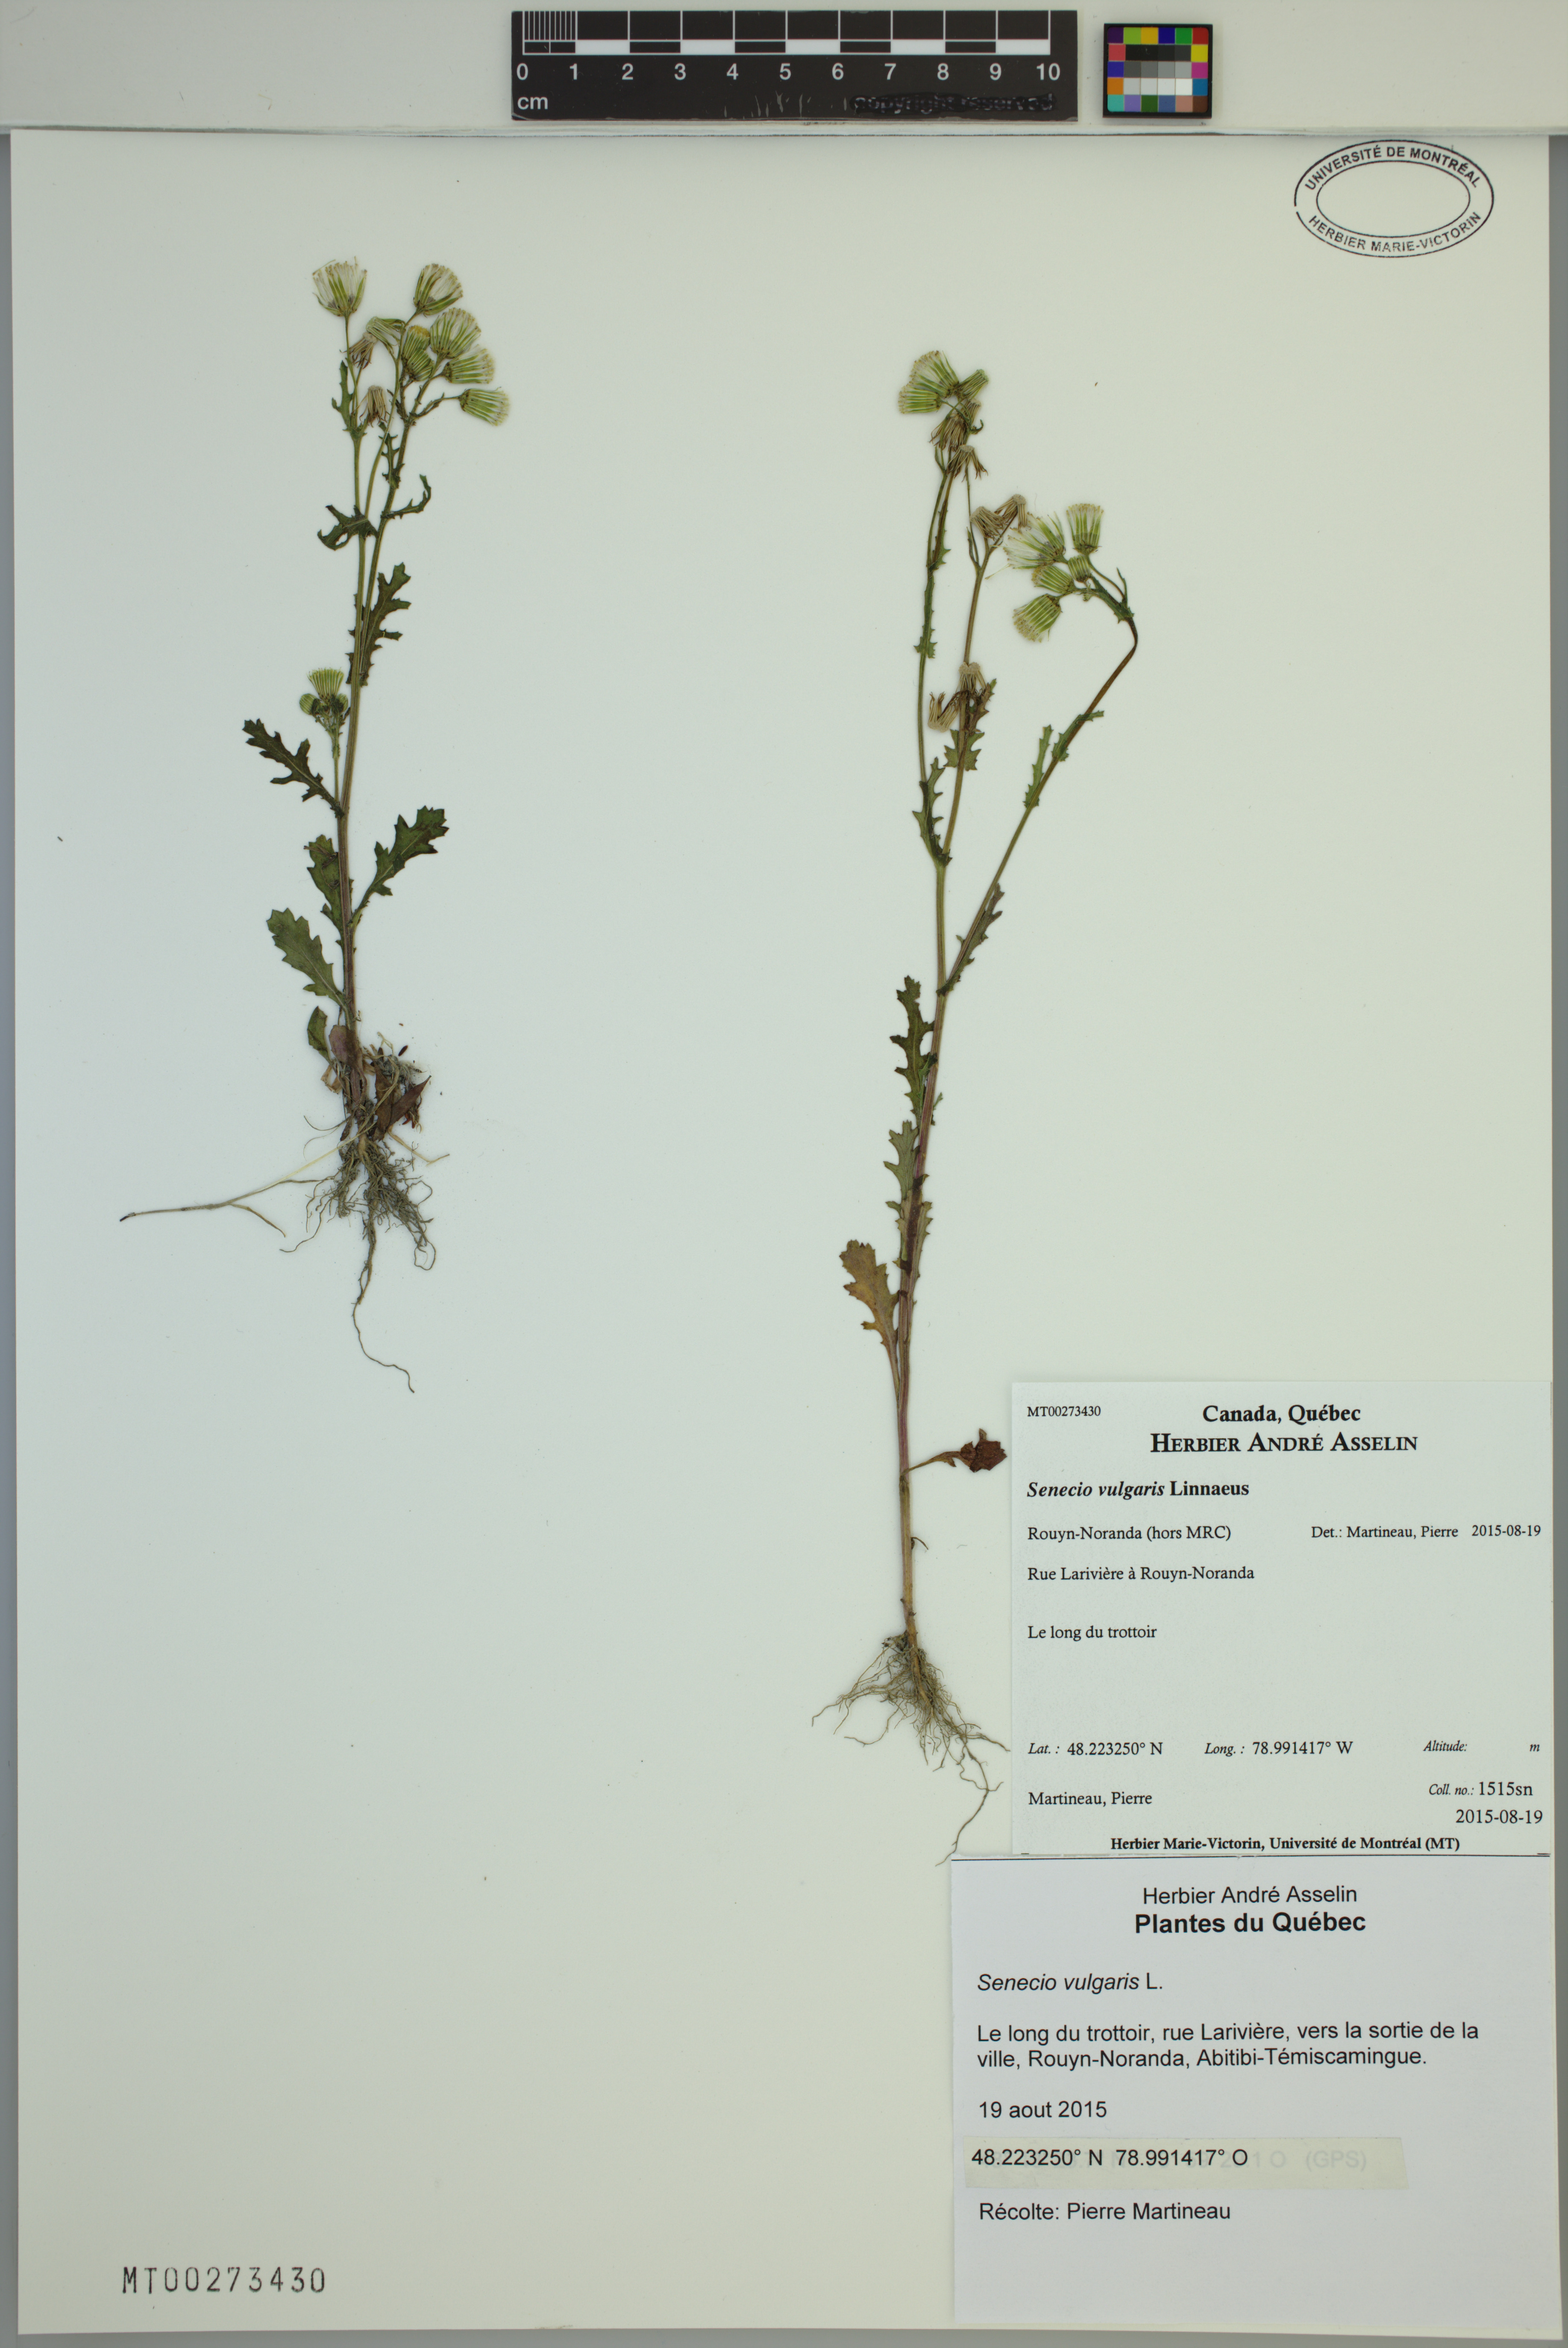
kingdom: Plantae
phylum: Tracheophyta
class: Magnoliopsida
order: Asterales
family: Asteraceae
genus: Senecio
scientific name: Senecio vulgaris
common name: Old-man-in-the-spring
